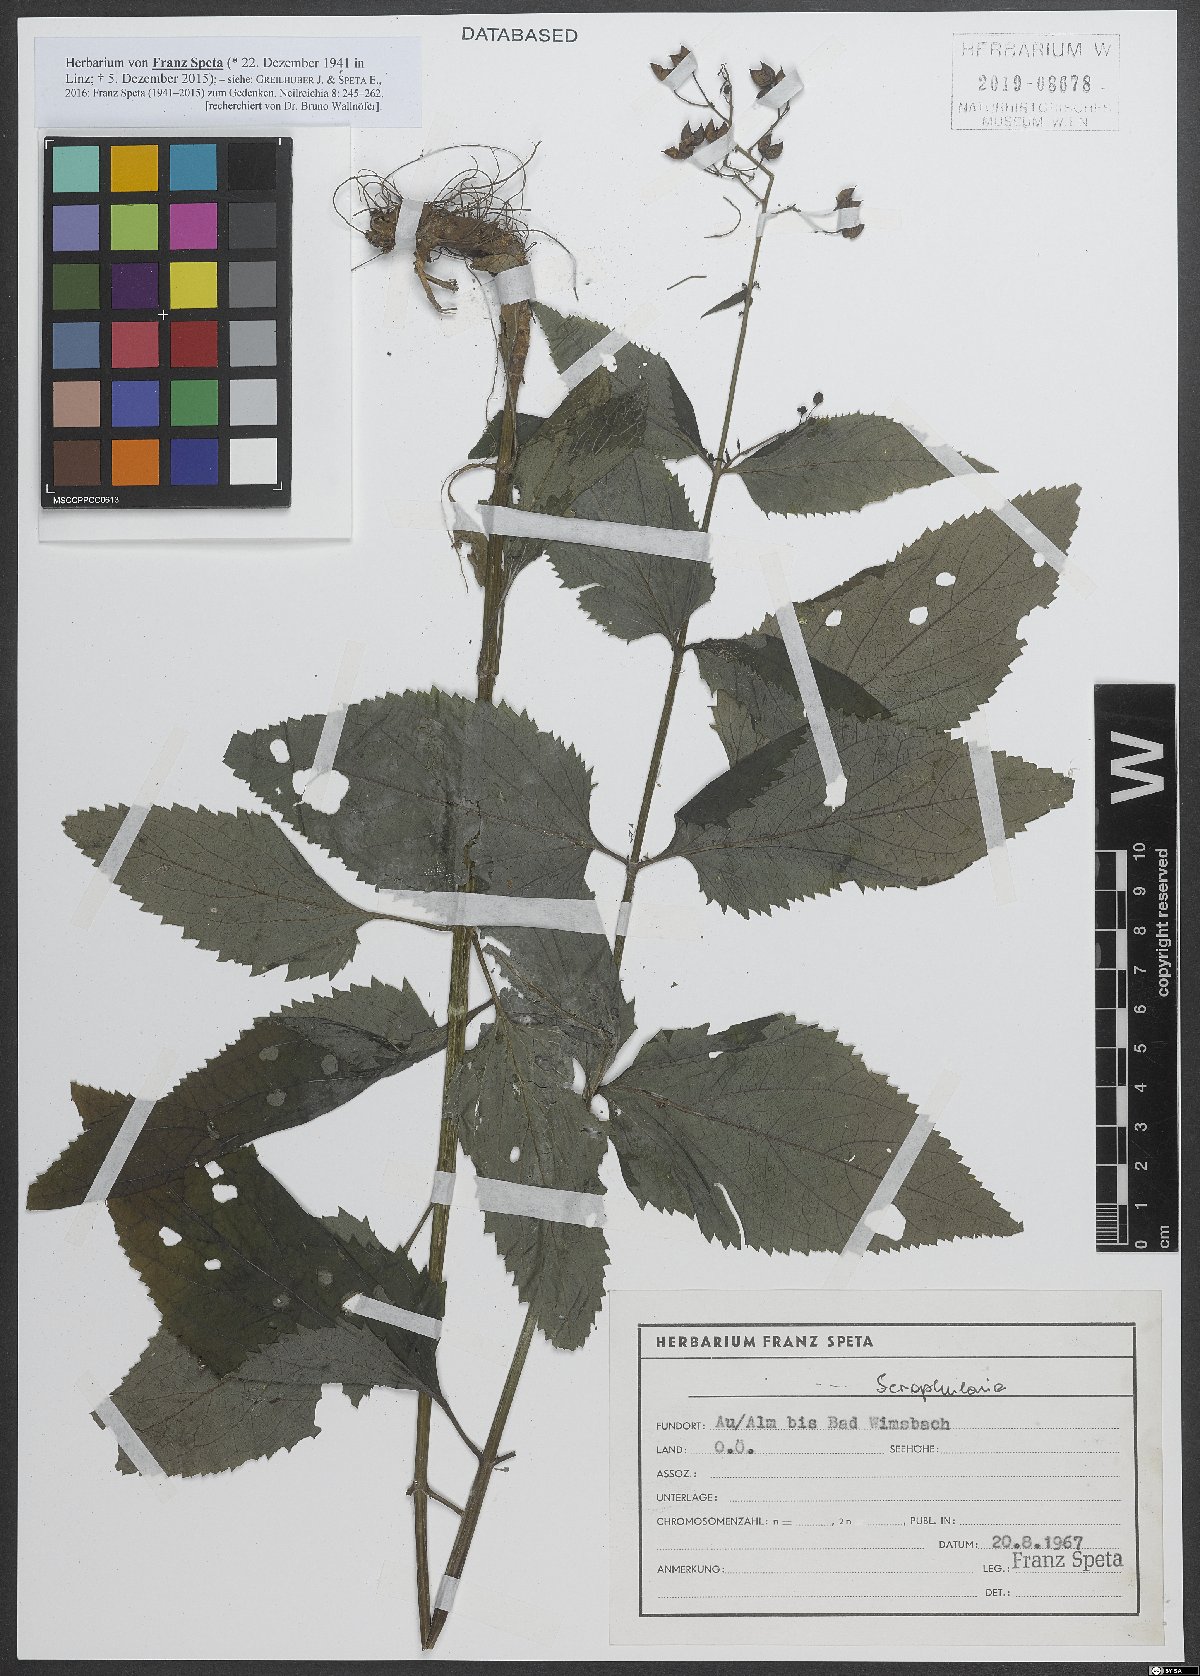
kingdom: Plantae
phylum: Tracheophyta
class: Magnoliopsida
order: Lamiales
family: Scrophulariaceae
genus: Scrophularia
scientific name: Scrophularia
